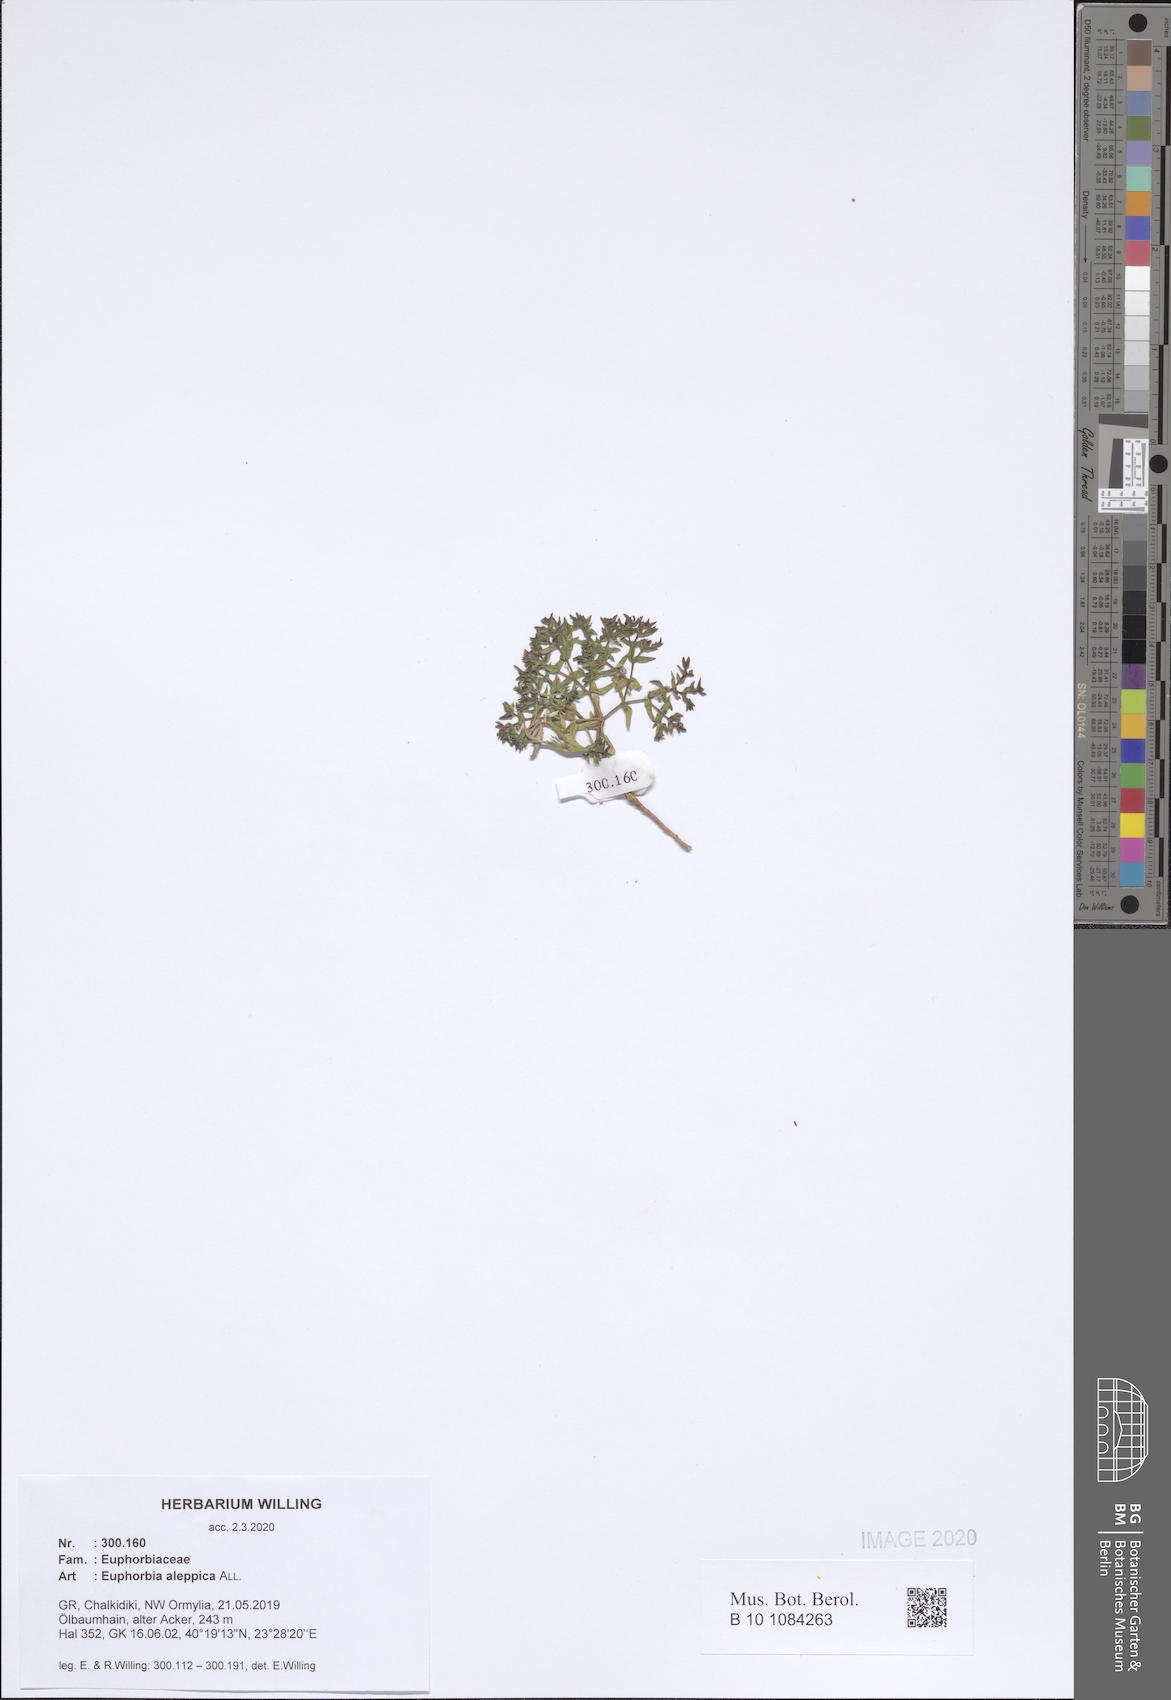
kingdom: Plantae
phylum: Tracheophyta
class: Magnoliopsida
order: Malpighiales
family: Euphorbiaceae
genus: Euphorbia
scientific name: Euphorbia aleppica
